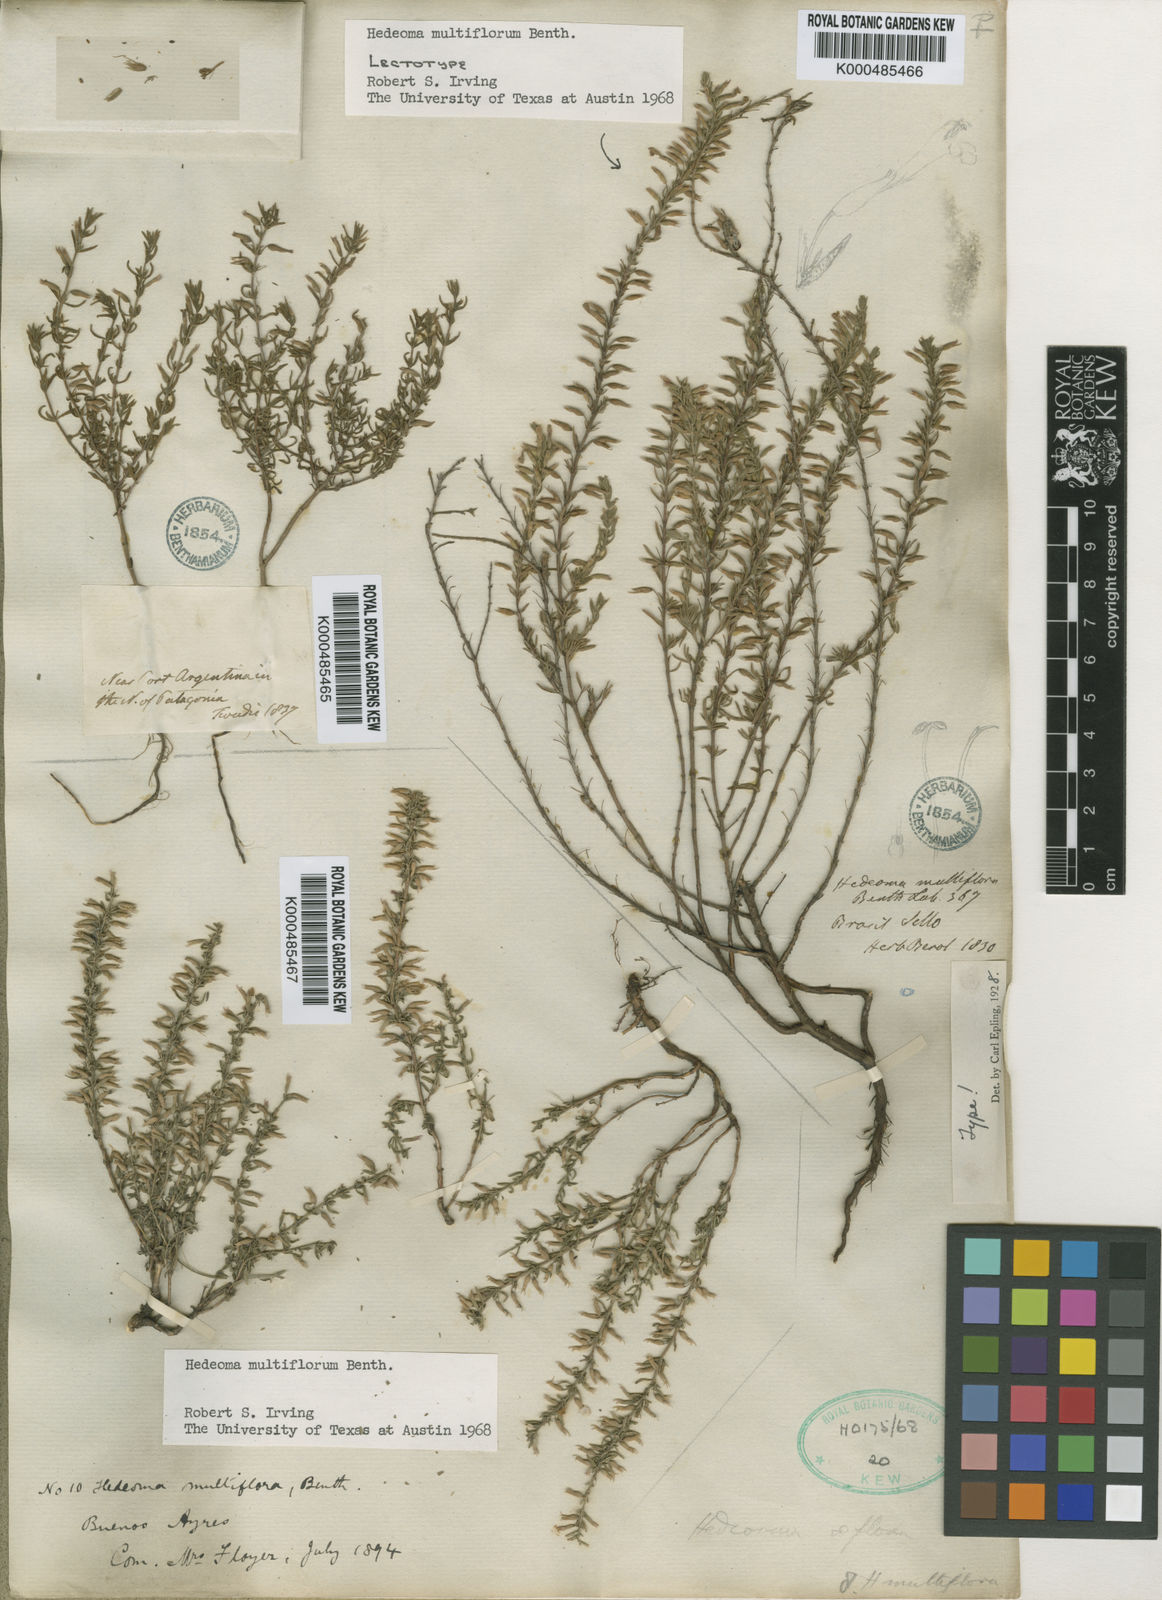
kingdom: Plantae
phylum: Tracheophyta
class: Magnoliopsida
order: Lamiales
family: Lamiaceae
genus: Hedeoma
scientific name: Hedeoma multiflora
